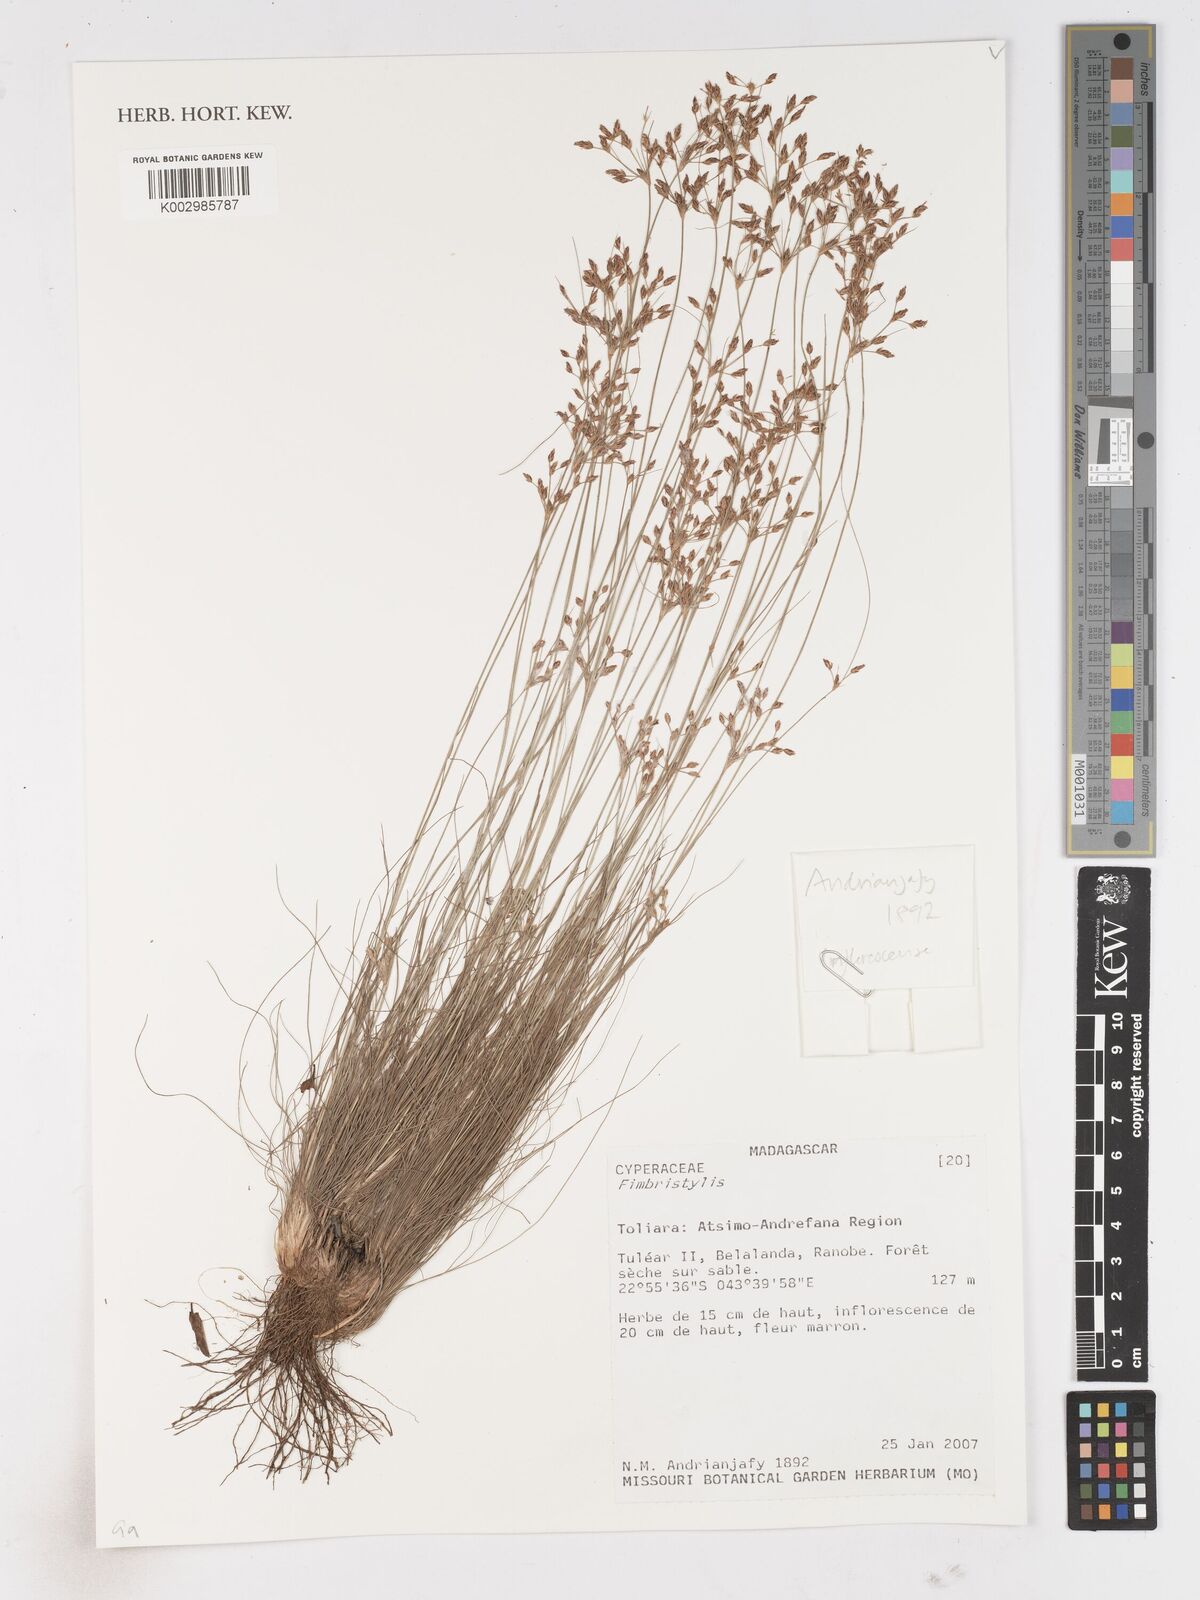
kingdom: Plantae
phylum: Tracheophyta
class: Liliopsida
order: Poales
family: Cyperaceae
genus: Fimbristylis
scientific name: Fimbristylis
